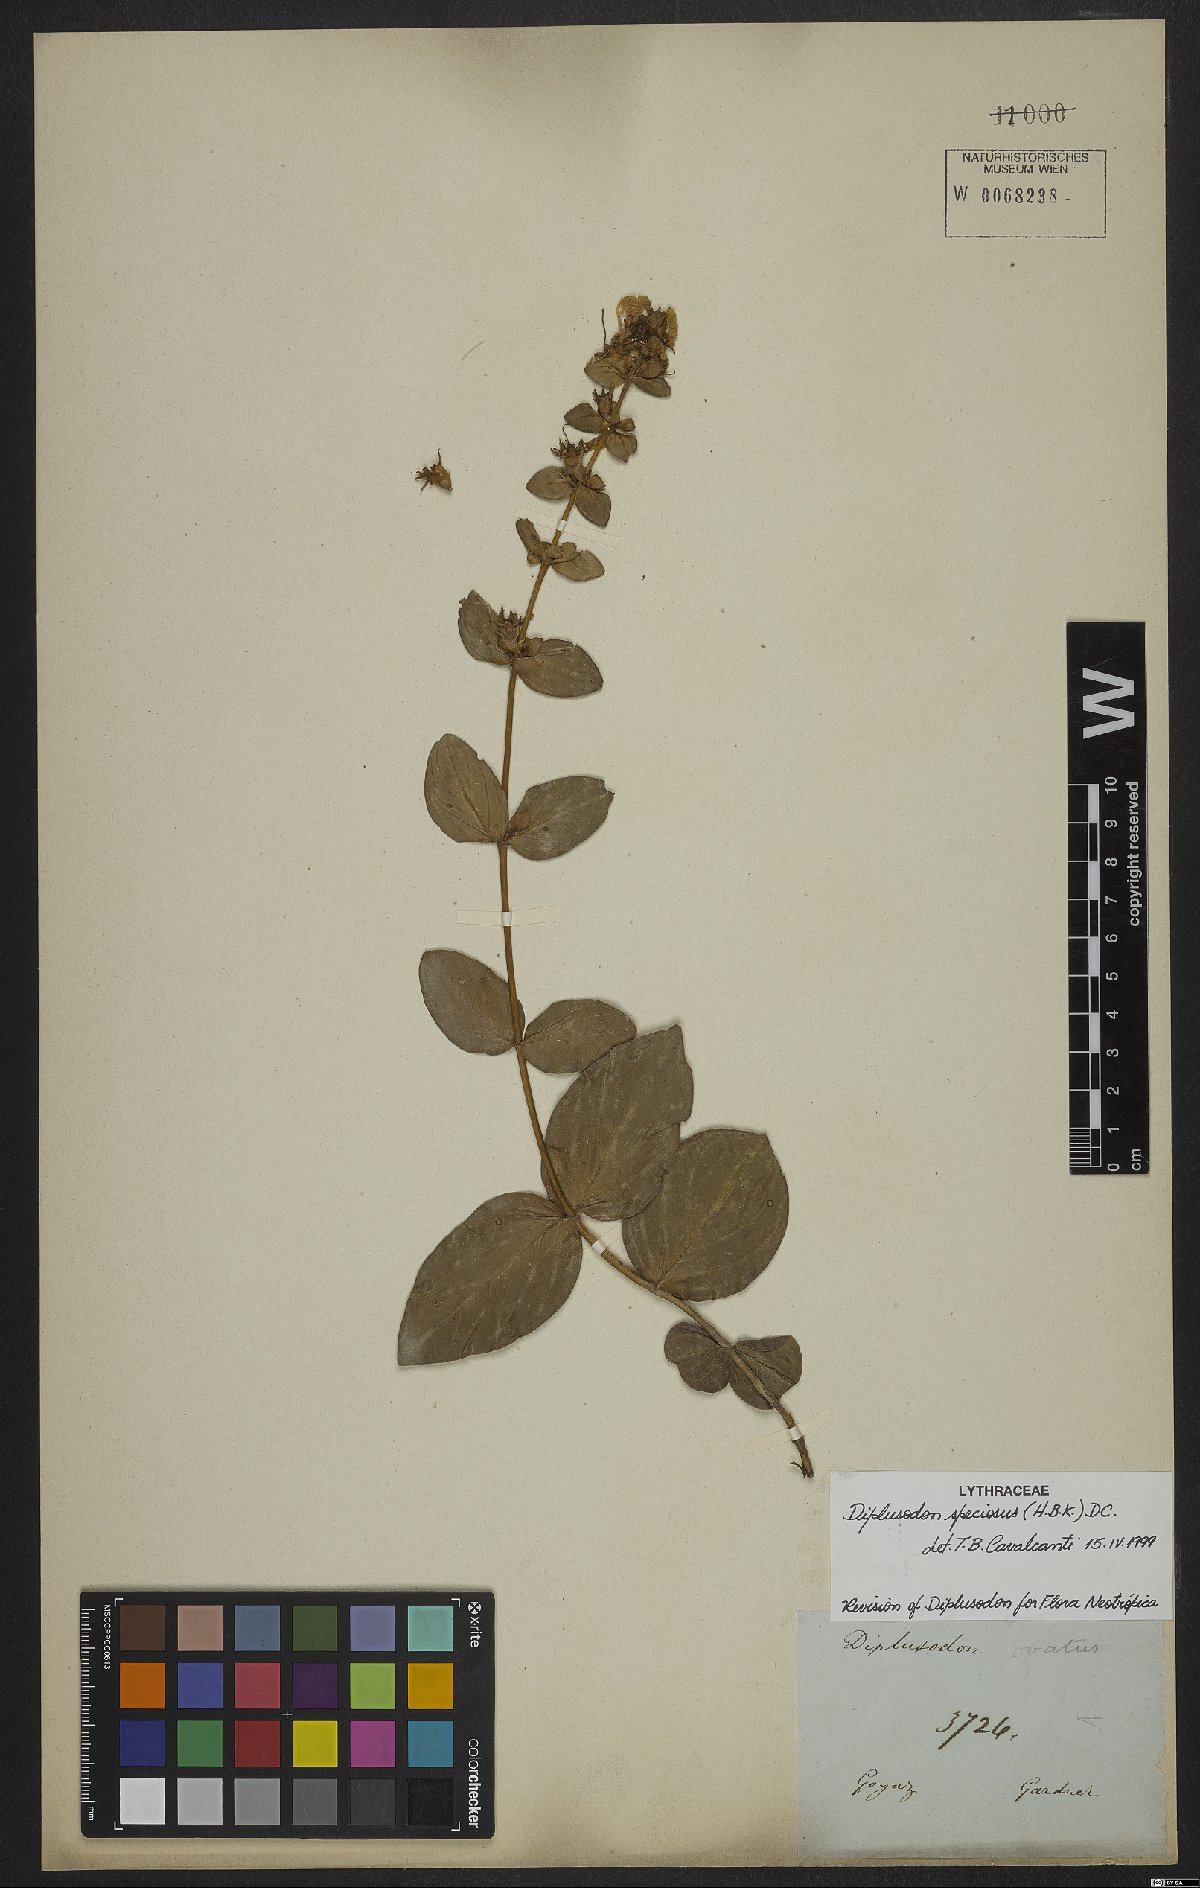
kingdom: Plantae
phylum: Tracheophyta
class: Magnoliopsida
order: Myrtales
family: Lythraceae
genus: Cuphea
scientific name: Cuphea llavea
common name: Tiny-mice
